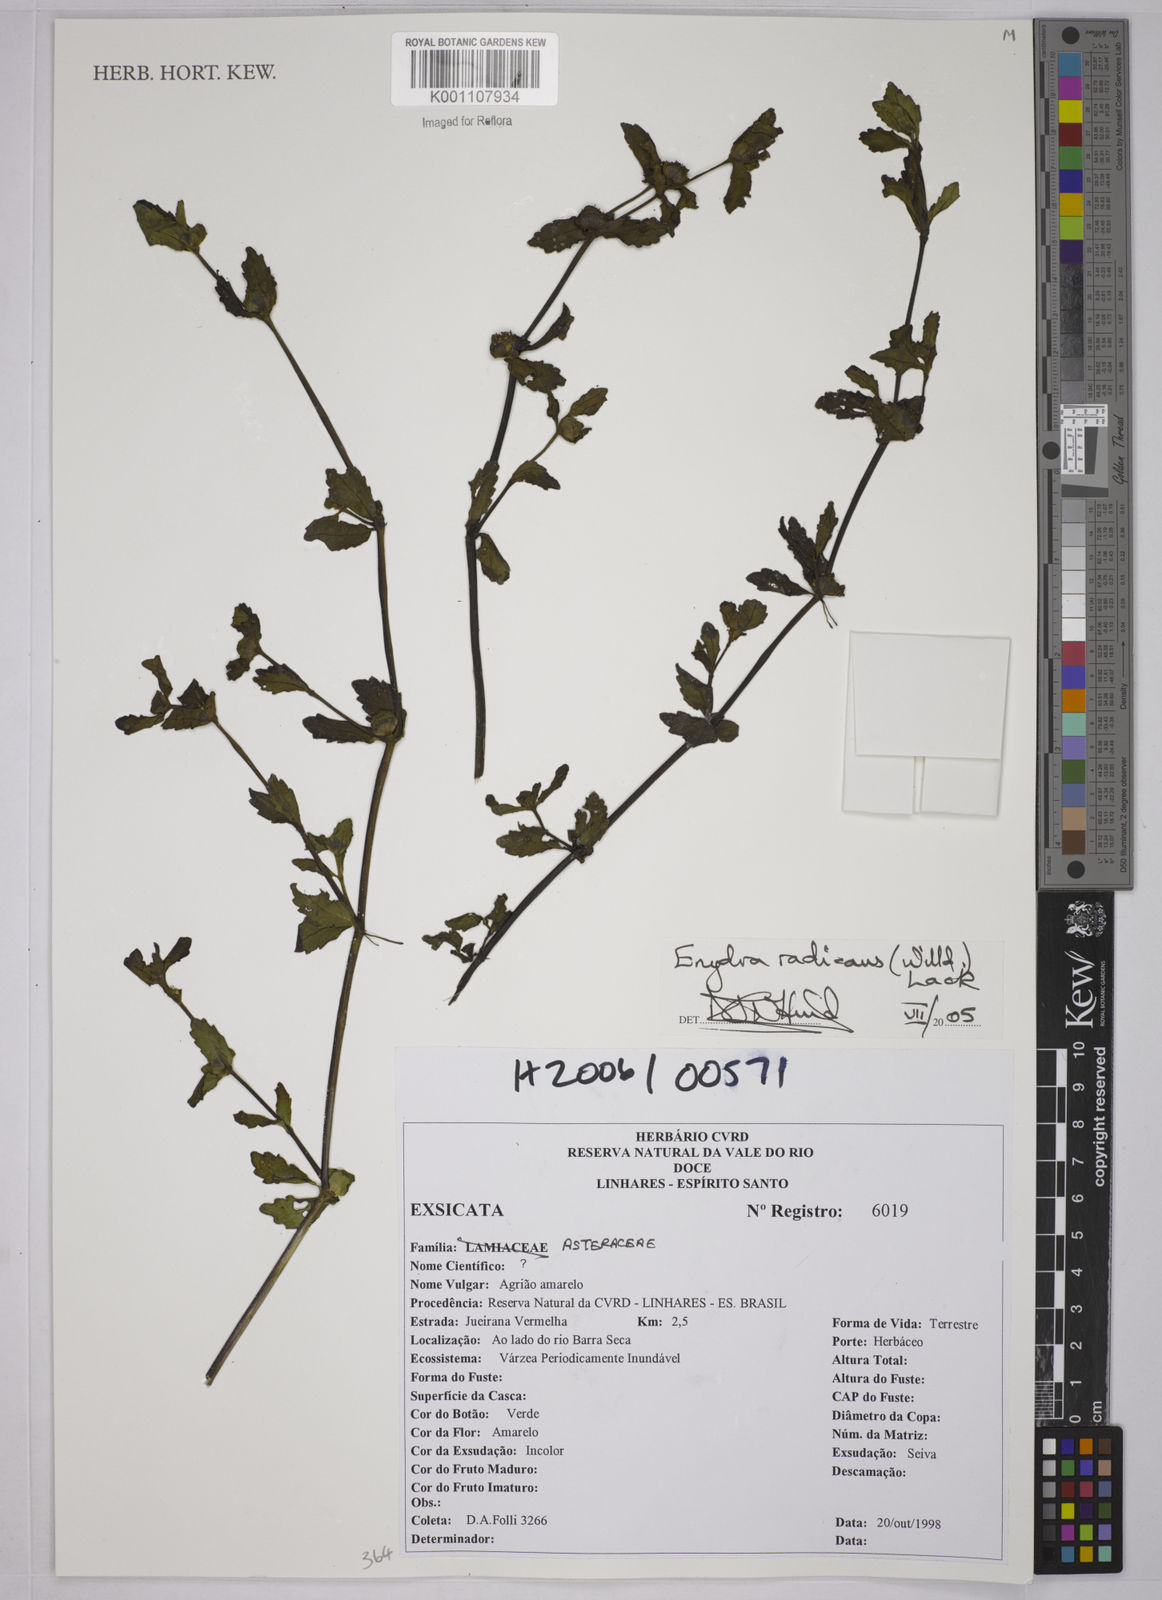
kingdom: Plantae
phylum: Tracheophyta
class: Magnoliopsida
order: Asterales
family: Asteraceae
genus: Enydra
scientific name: Enydra radicans
